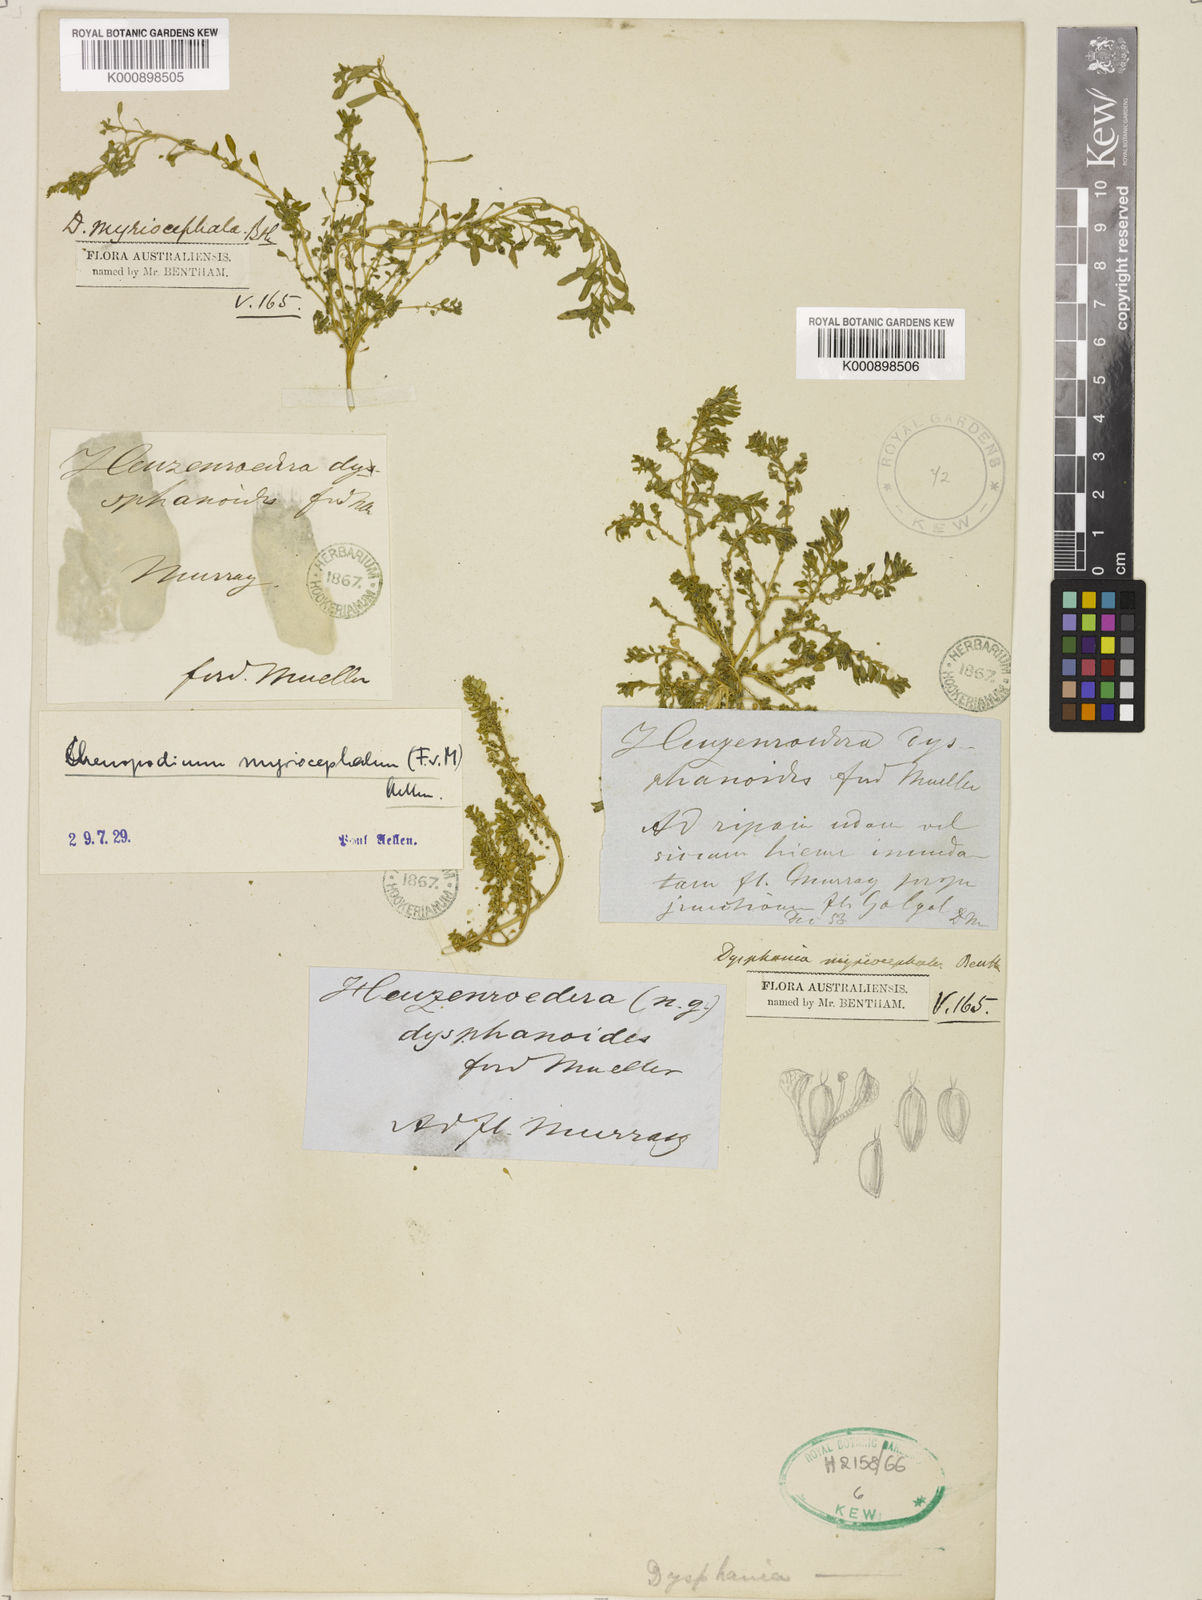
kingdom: Plantae
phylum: Tracheophyta
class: Magnoliopsida
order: Caryophyllales
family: Amaranthaceae
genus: Dysphania
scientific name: Dysphania glomulifera
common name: Australian pigweed
